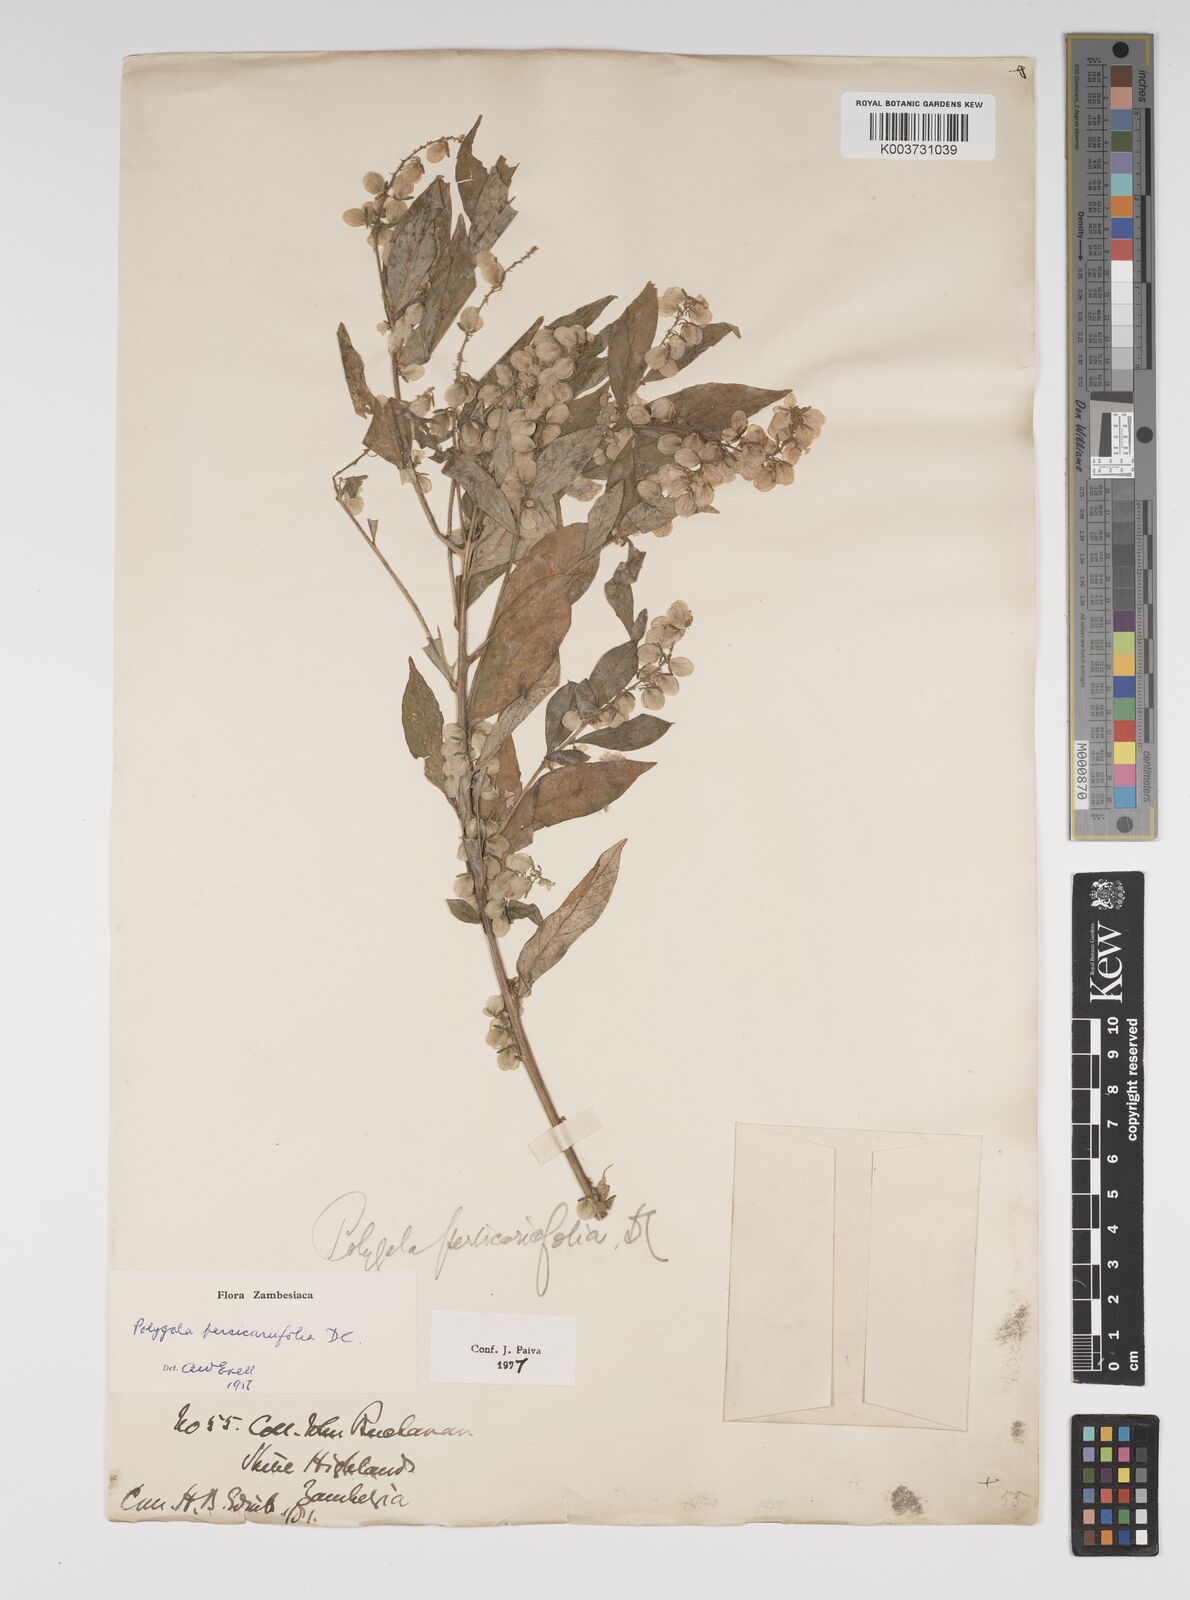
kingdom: Plantae
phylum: Tracheophyta
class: Magnoliopsida
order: Fabales
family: Polygalaceae
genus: Polygala
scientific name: Polygala persicariifolia
